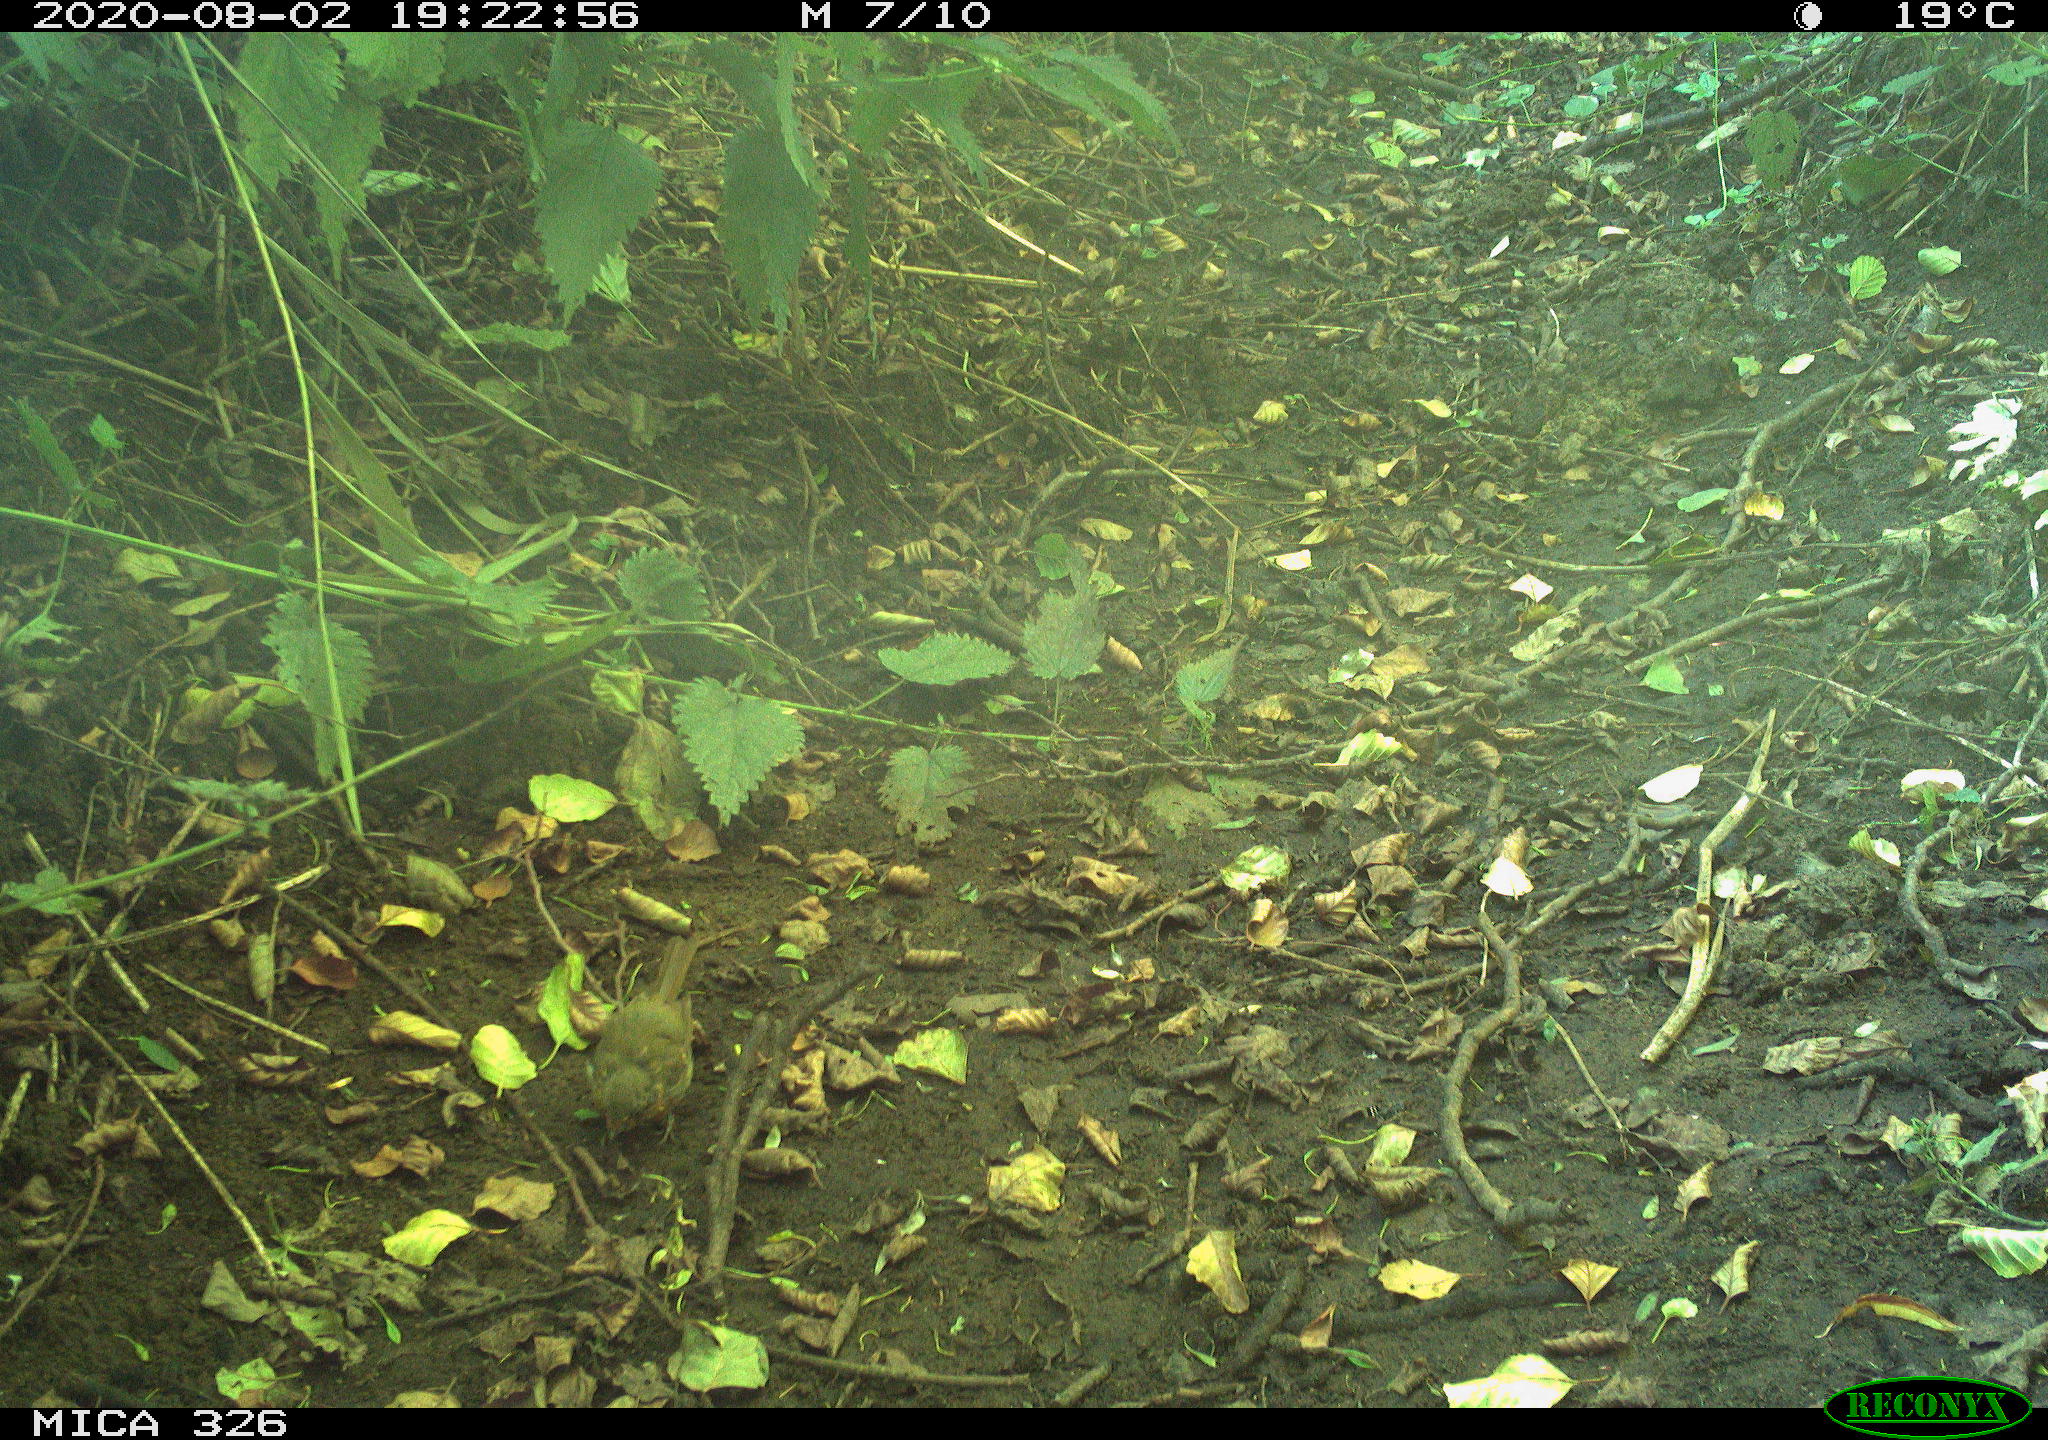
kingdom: Animalia
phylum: Chordata
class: Aves
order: Passeriformes
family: Muscicapidae
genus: Erithacus
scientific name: Erithacus rubecula
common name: European robin
